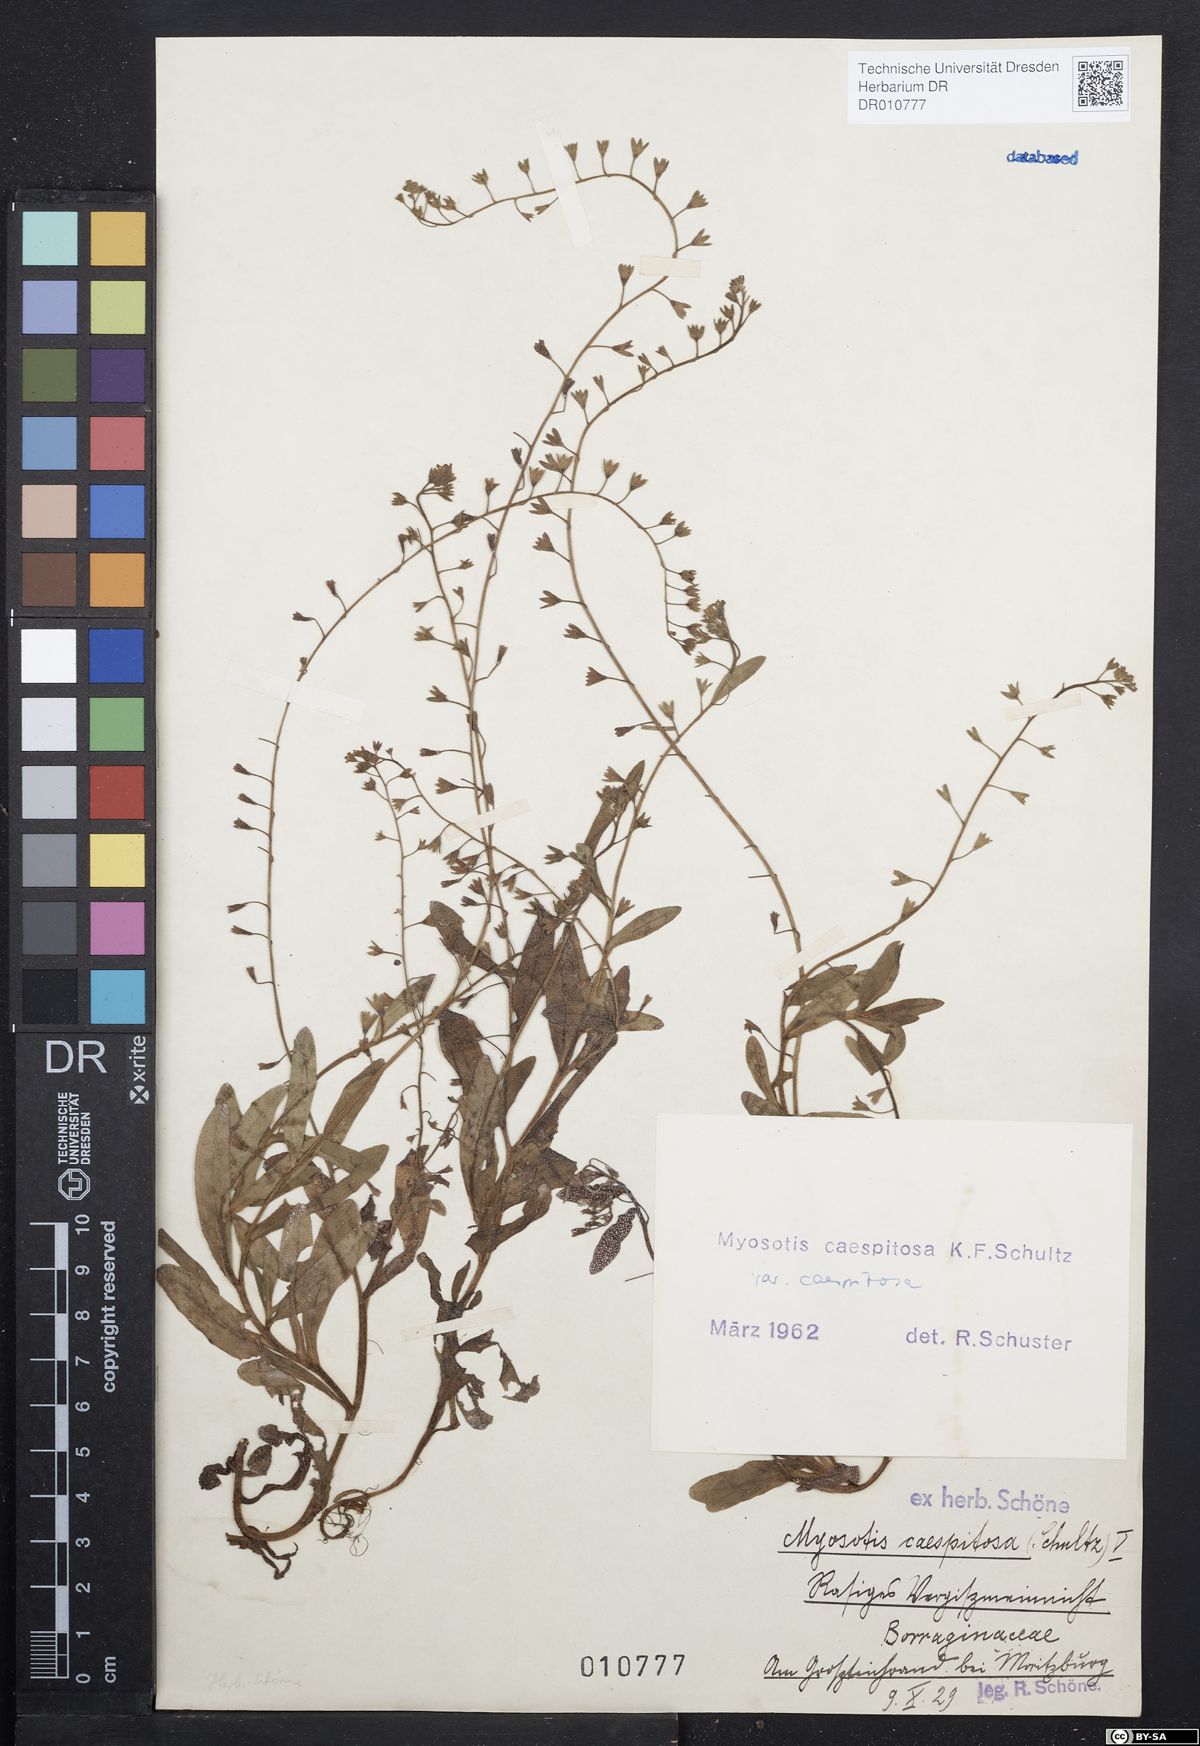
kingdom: Plantae
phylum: Tracheophyta
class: Magnoliopsida
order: Boraginales
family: Boraginaceae
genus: Myosotis
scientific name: Myosotis laxa
